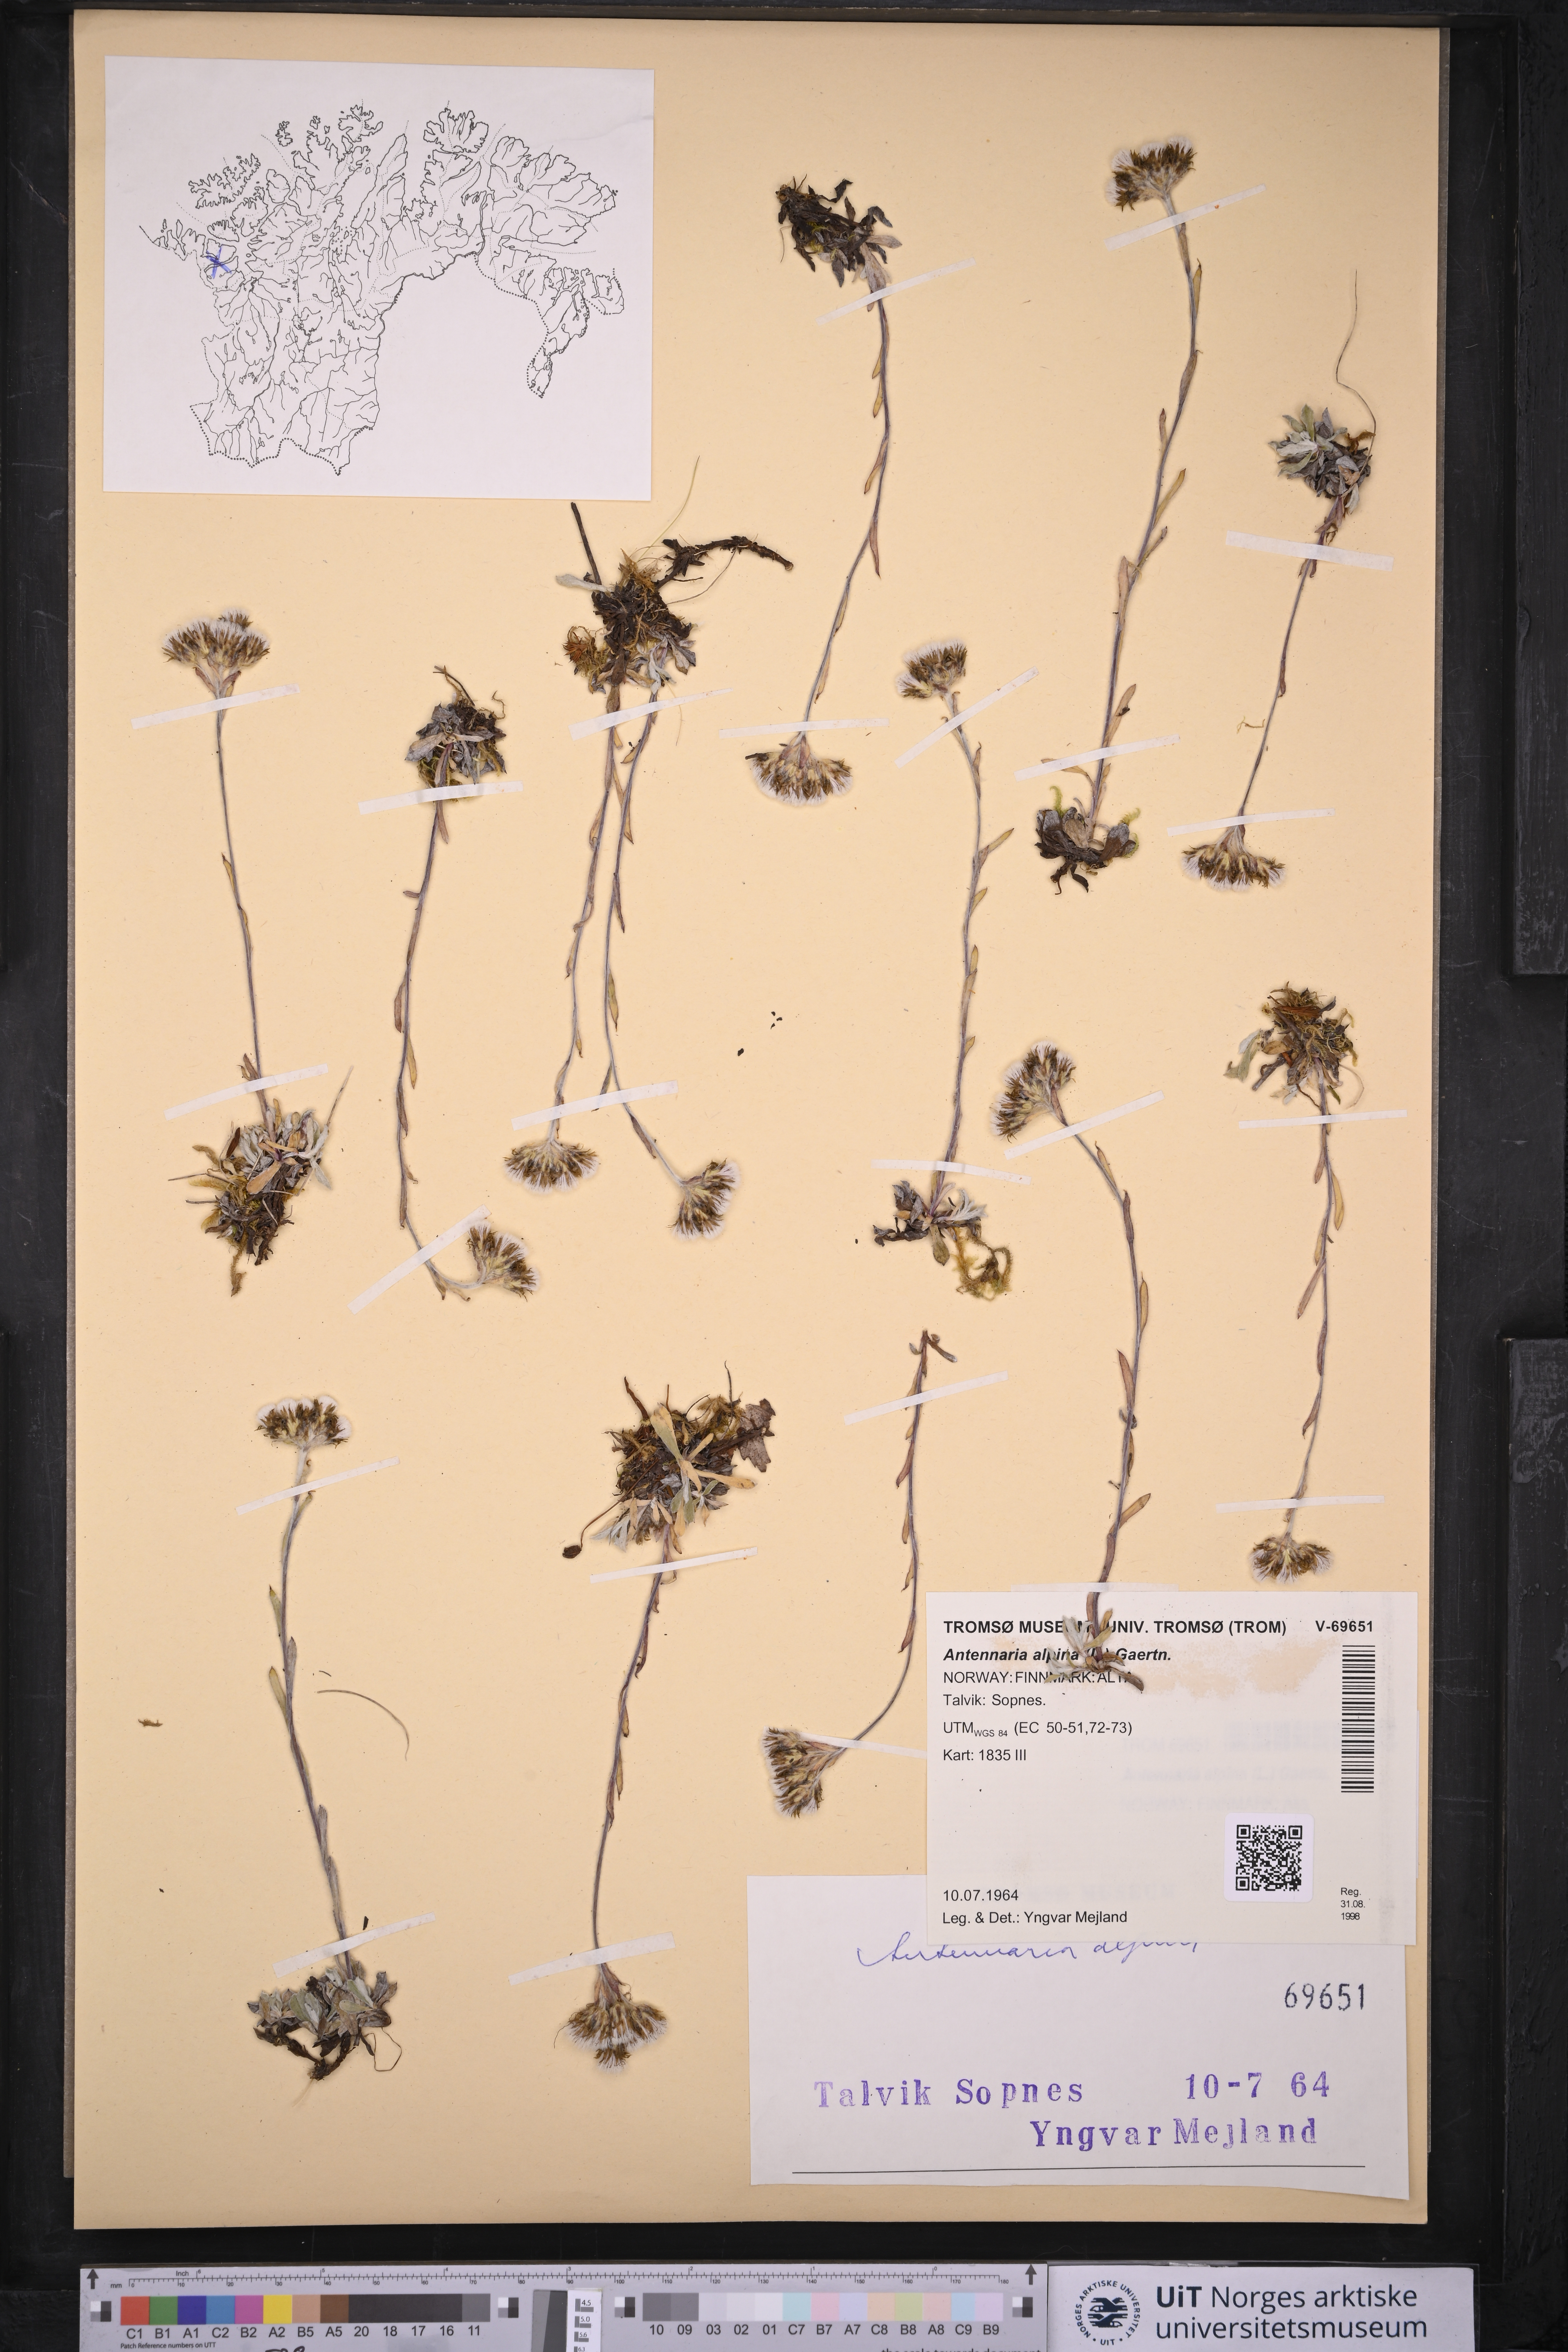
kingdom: Plantae
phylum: Tracheophyta
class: Magnoliopsida
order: Asterales
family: Asteraceae
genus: Antennaria
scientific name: Antennaria alpina
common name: Alpine pussytoes
